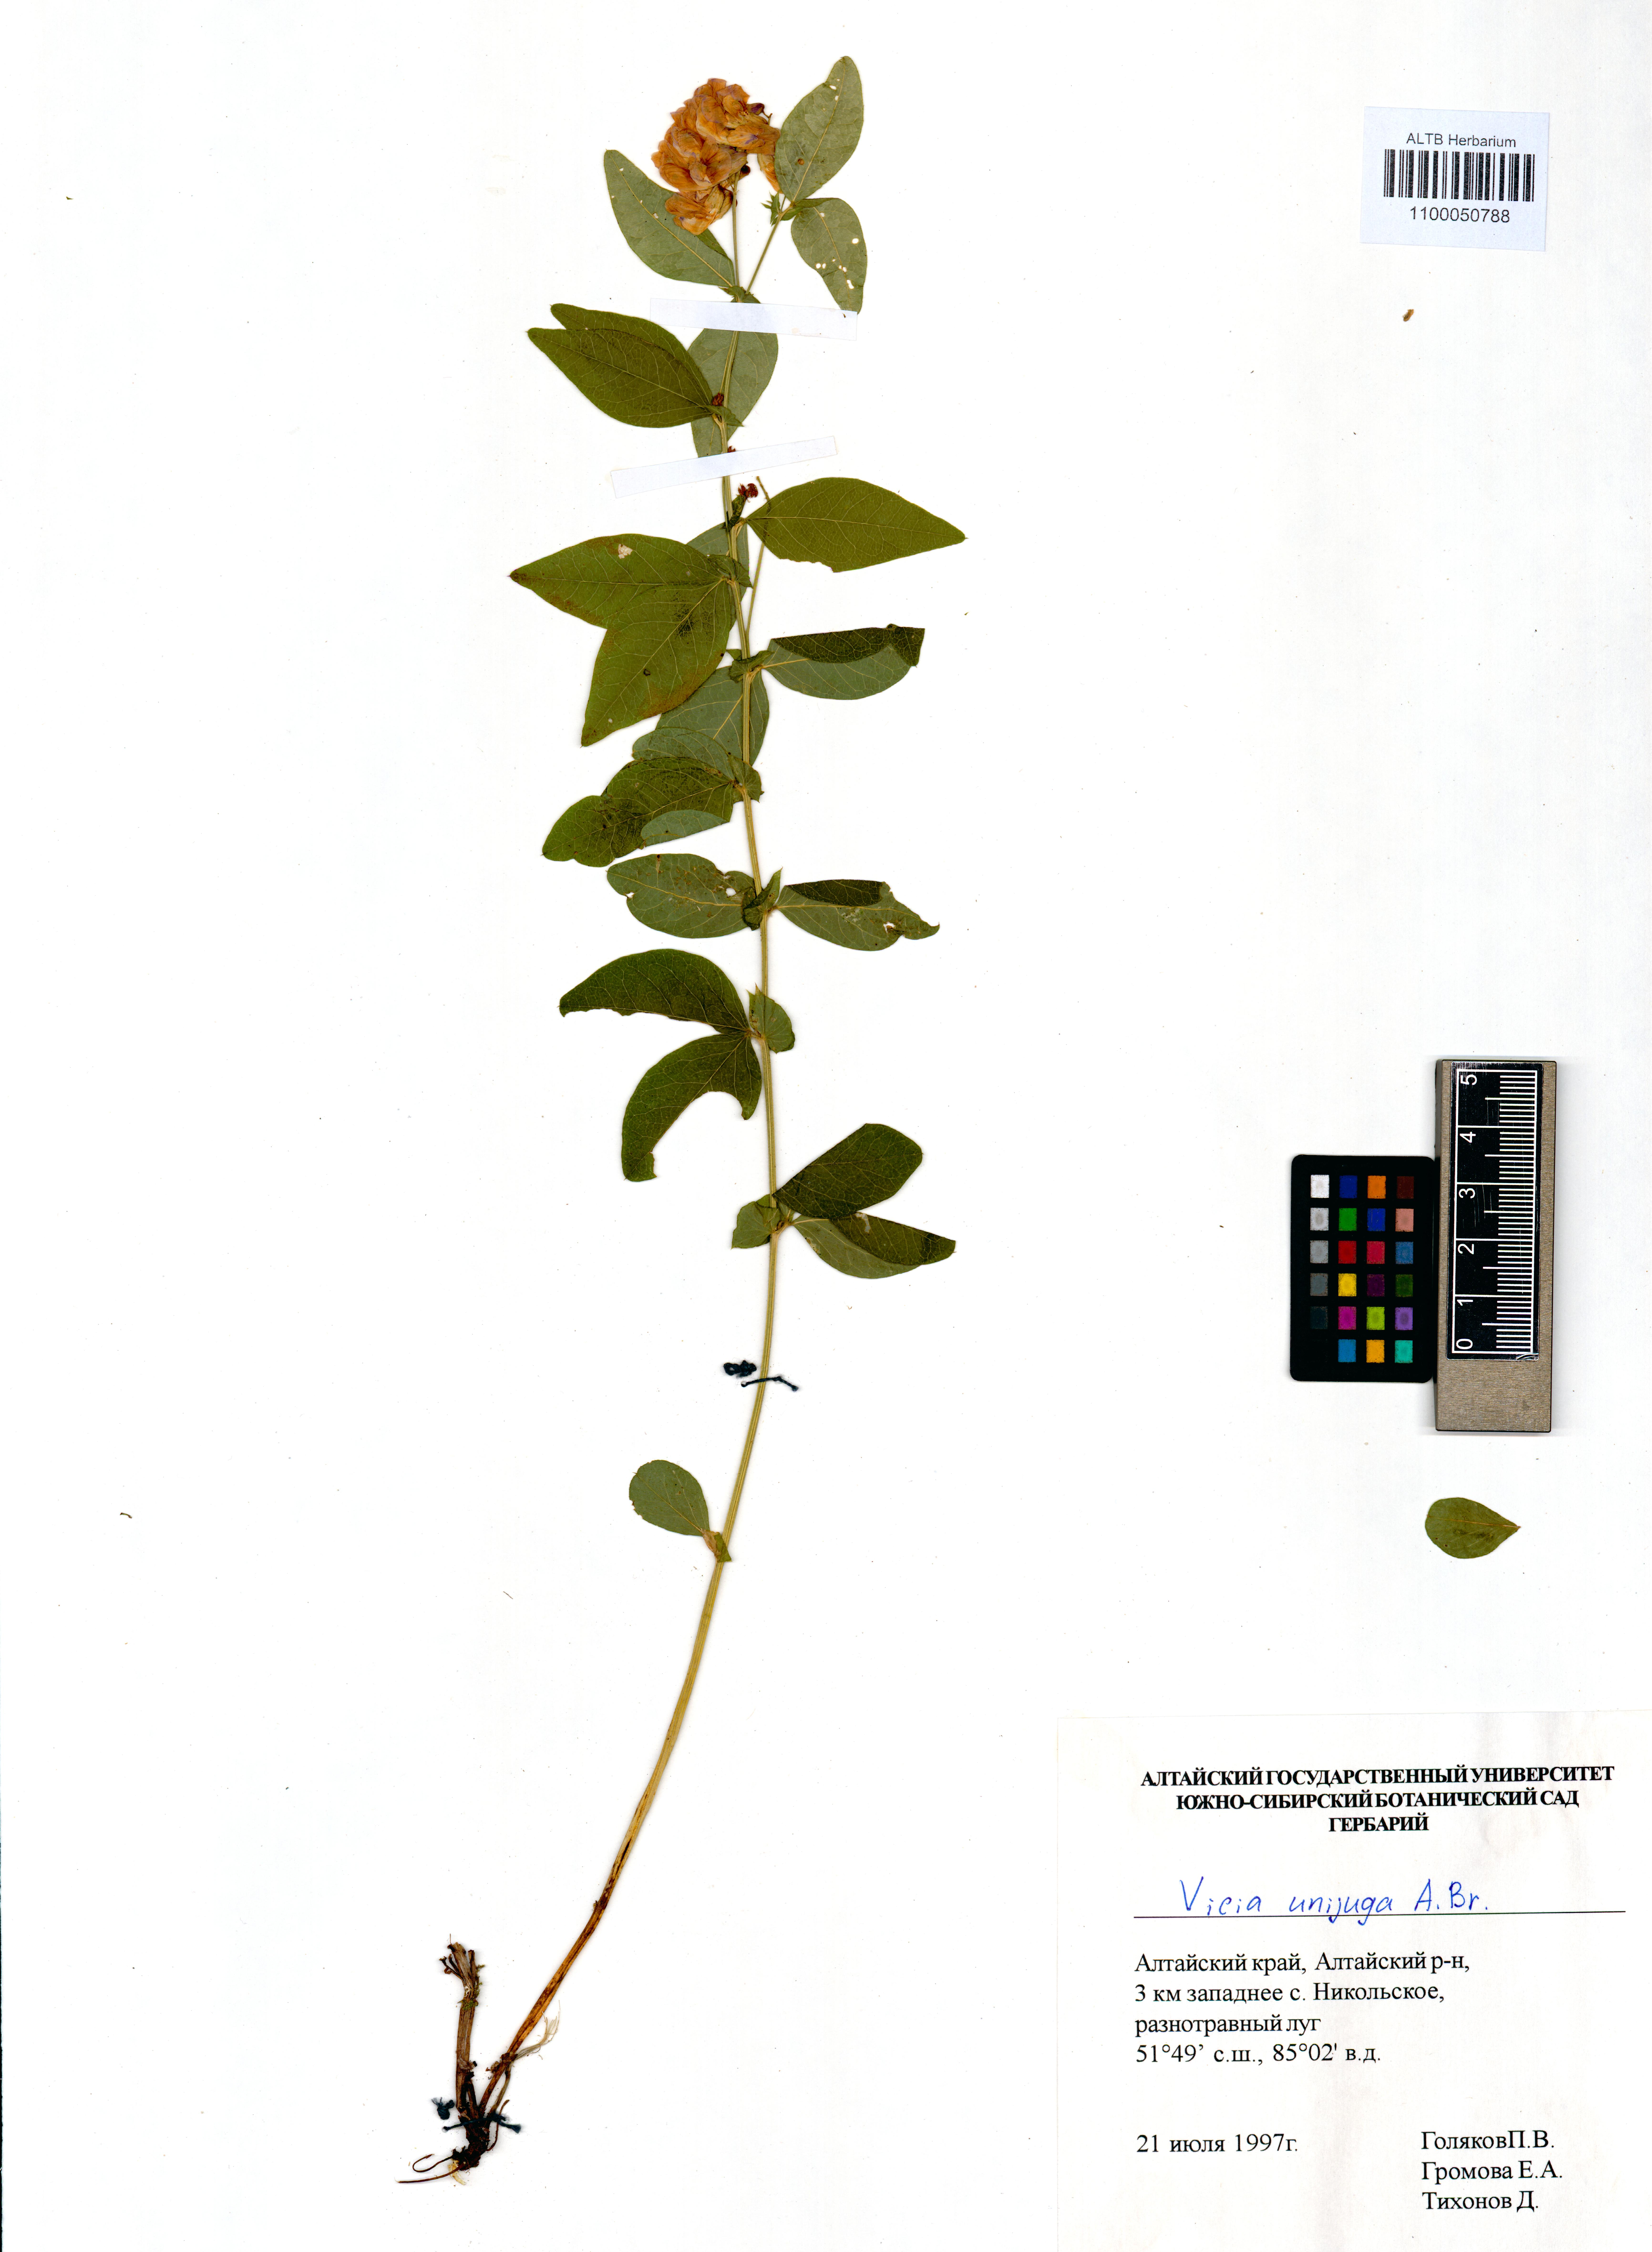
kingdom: Plantae
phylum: Tracheophyta
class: Magnoliopsida
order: Fabales
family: Fabaceae
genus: Vicia
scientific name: Vicia unijuga
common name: Two-leaf vetch
